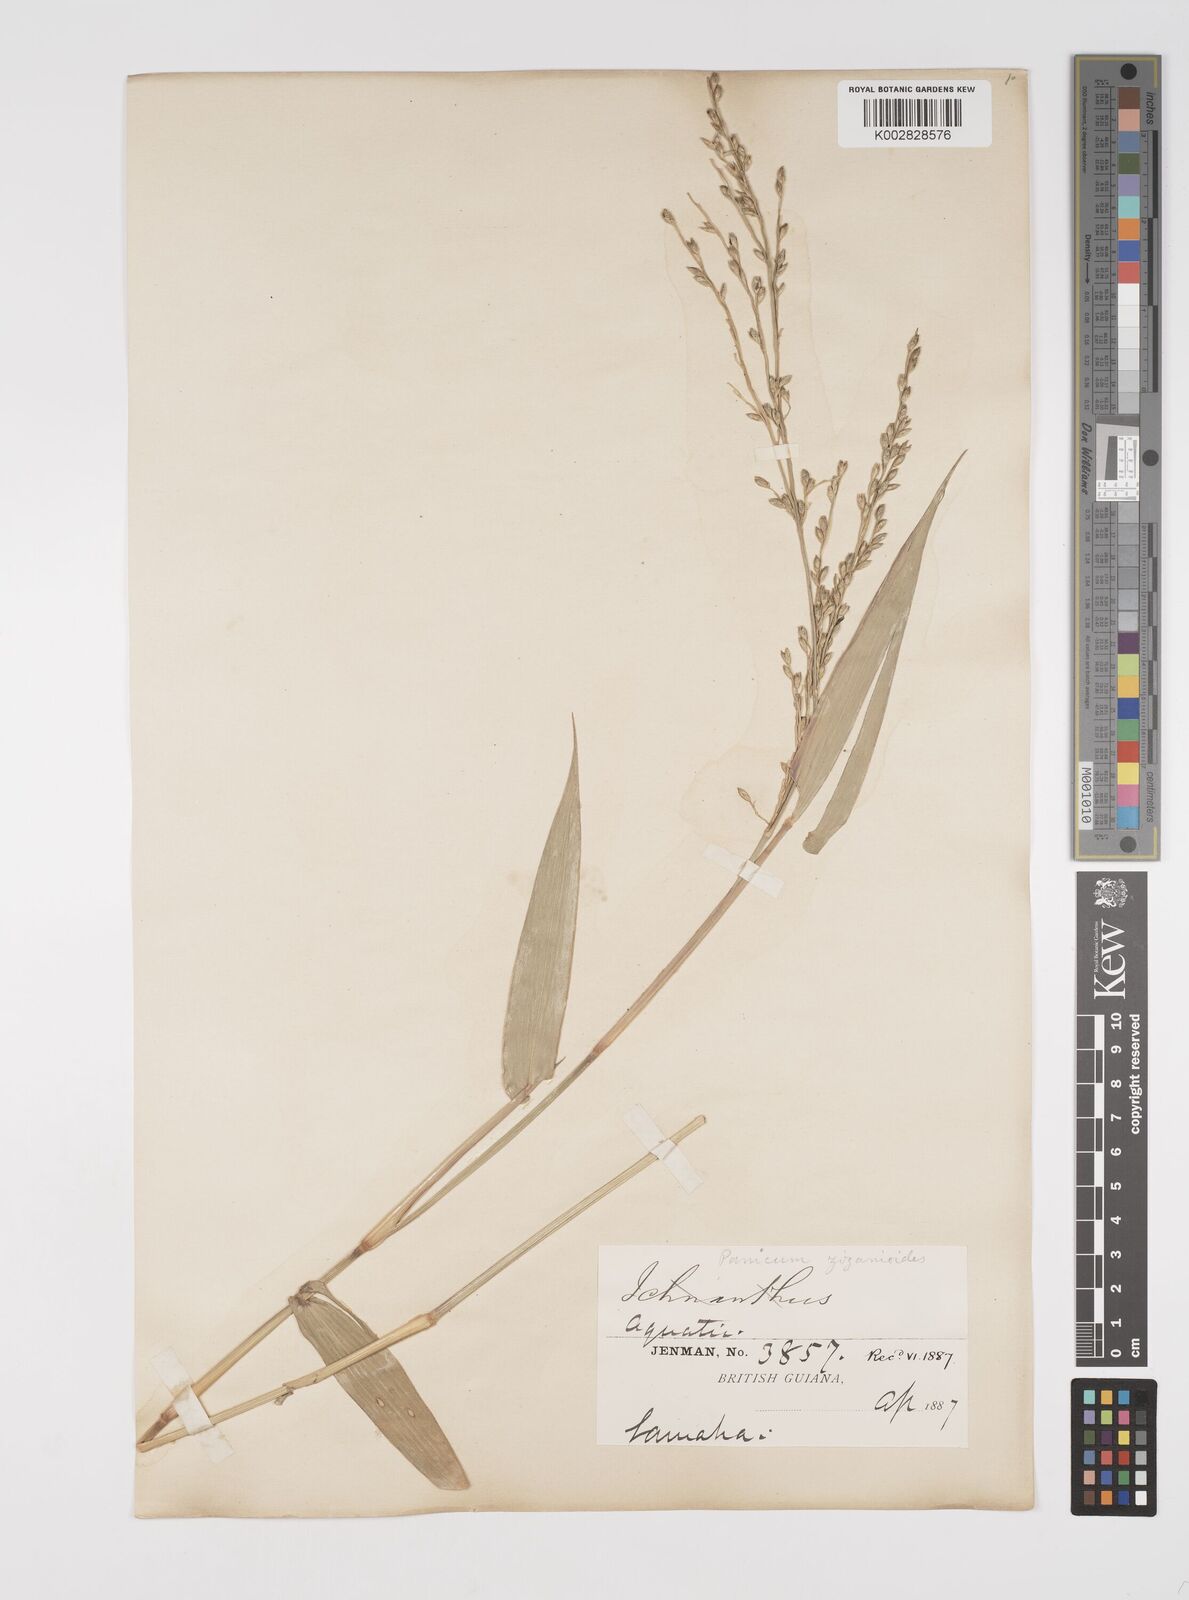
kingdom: Plantae
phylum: Tracheophyta
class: Liliopsida
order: Poales
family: Poaceae
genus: Acroceras
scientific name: Acroceras zizanioides
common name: Oat grass
